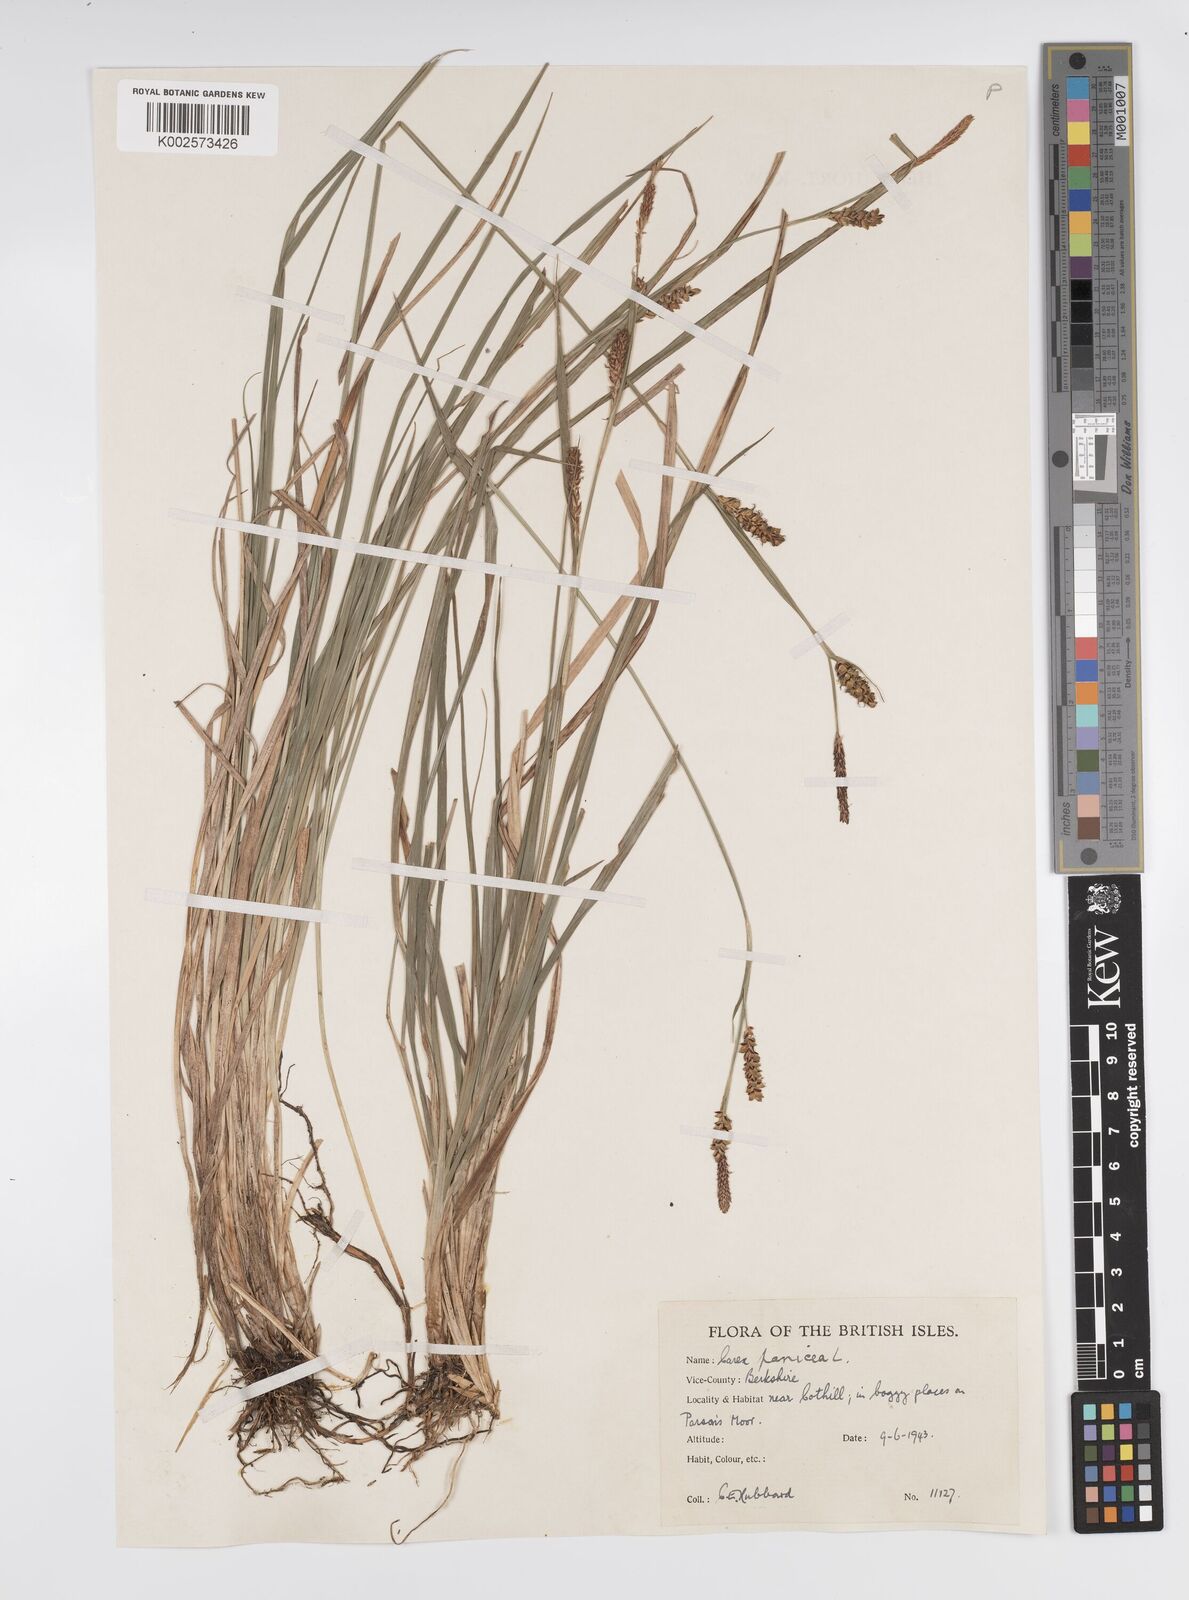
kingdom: Plantae
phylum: Tracheophyta
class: Liliopsida
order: Poales
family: Cyperaceae
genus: Carex
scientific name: Carex panicea
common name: Carnation sedge
